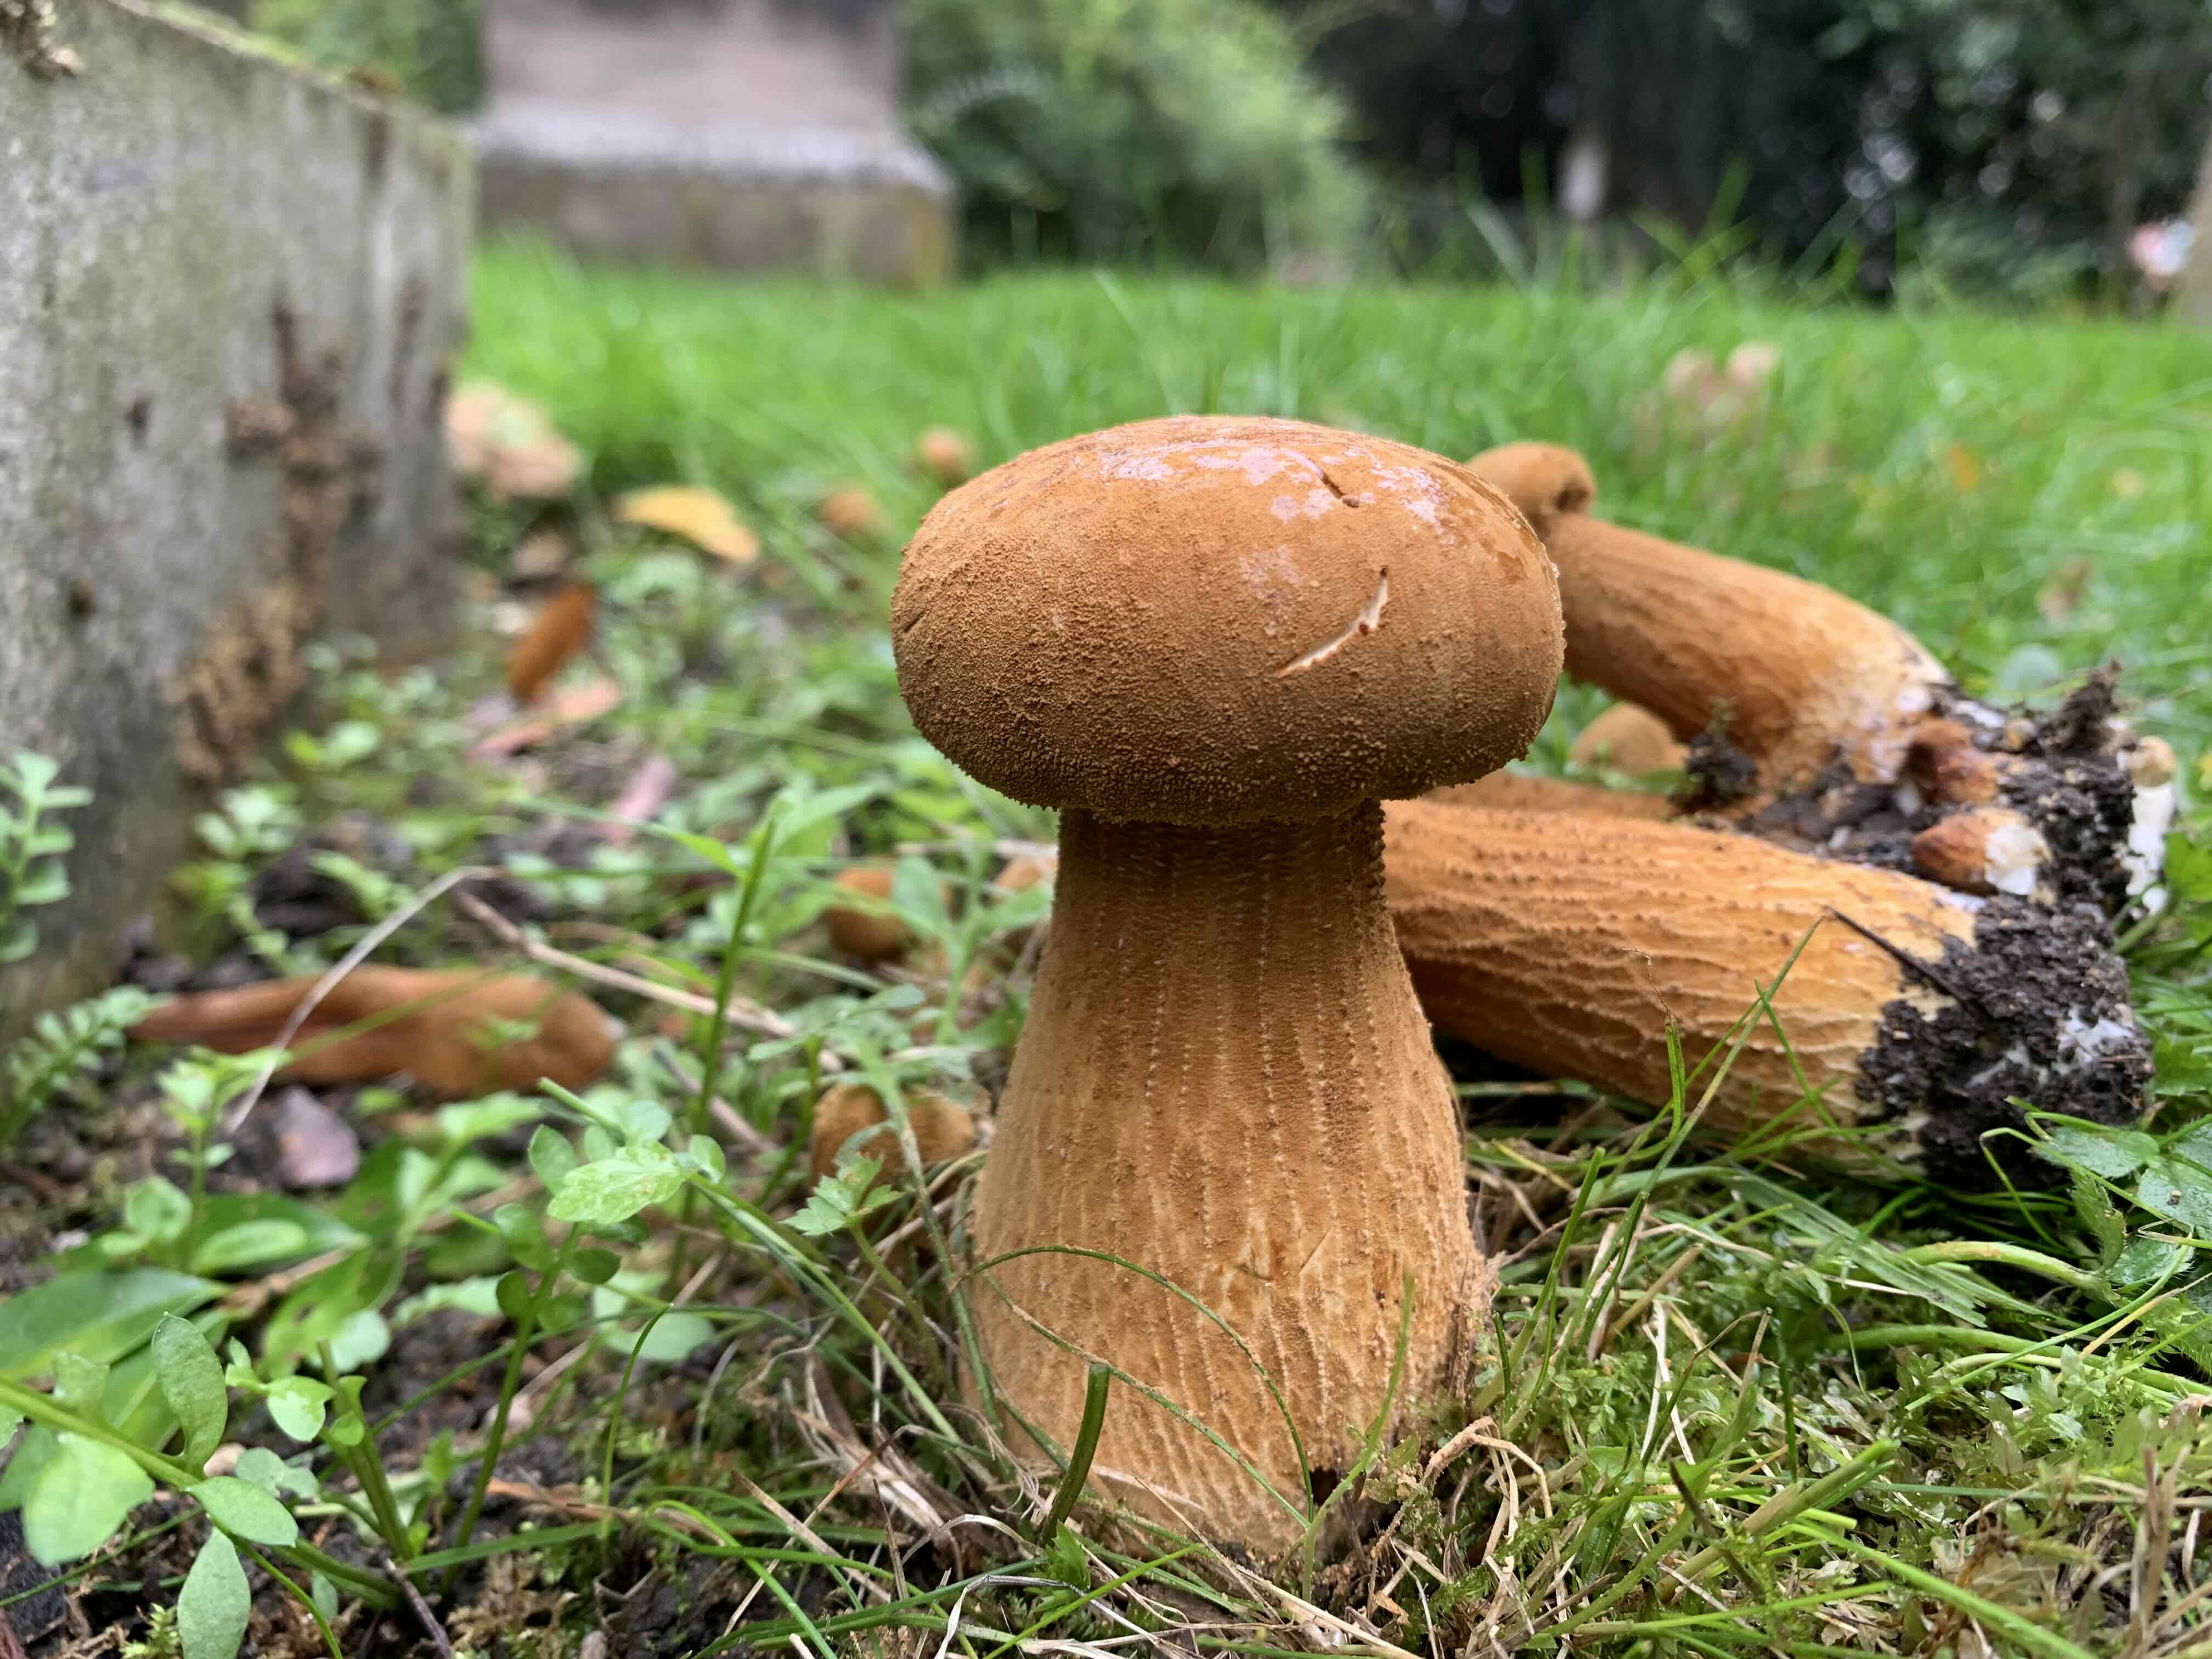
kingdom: Fungi
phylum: Basidiomycota
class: Agaricomycetes
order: Agaricales
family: Tricholomataceae
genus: Phaeolepiota
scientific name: Phaeolepiota aurea
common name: gyldenhat
